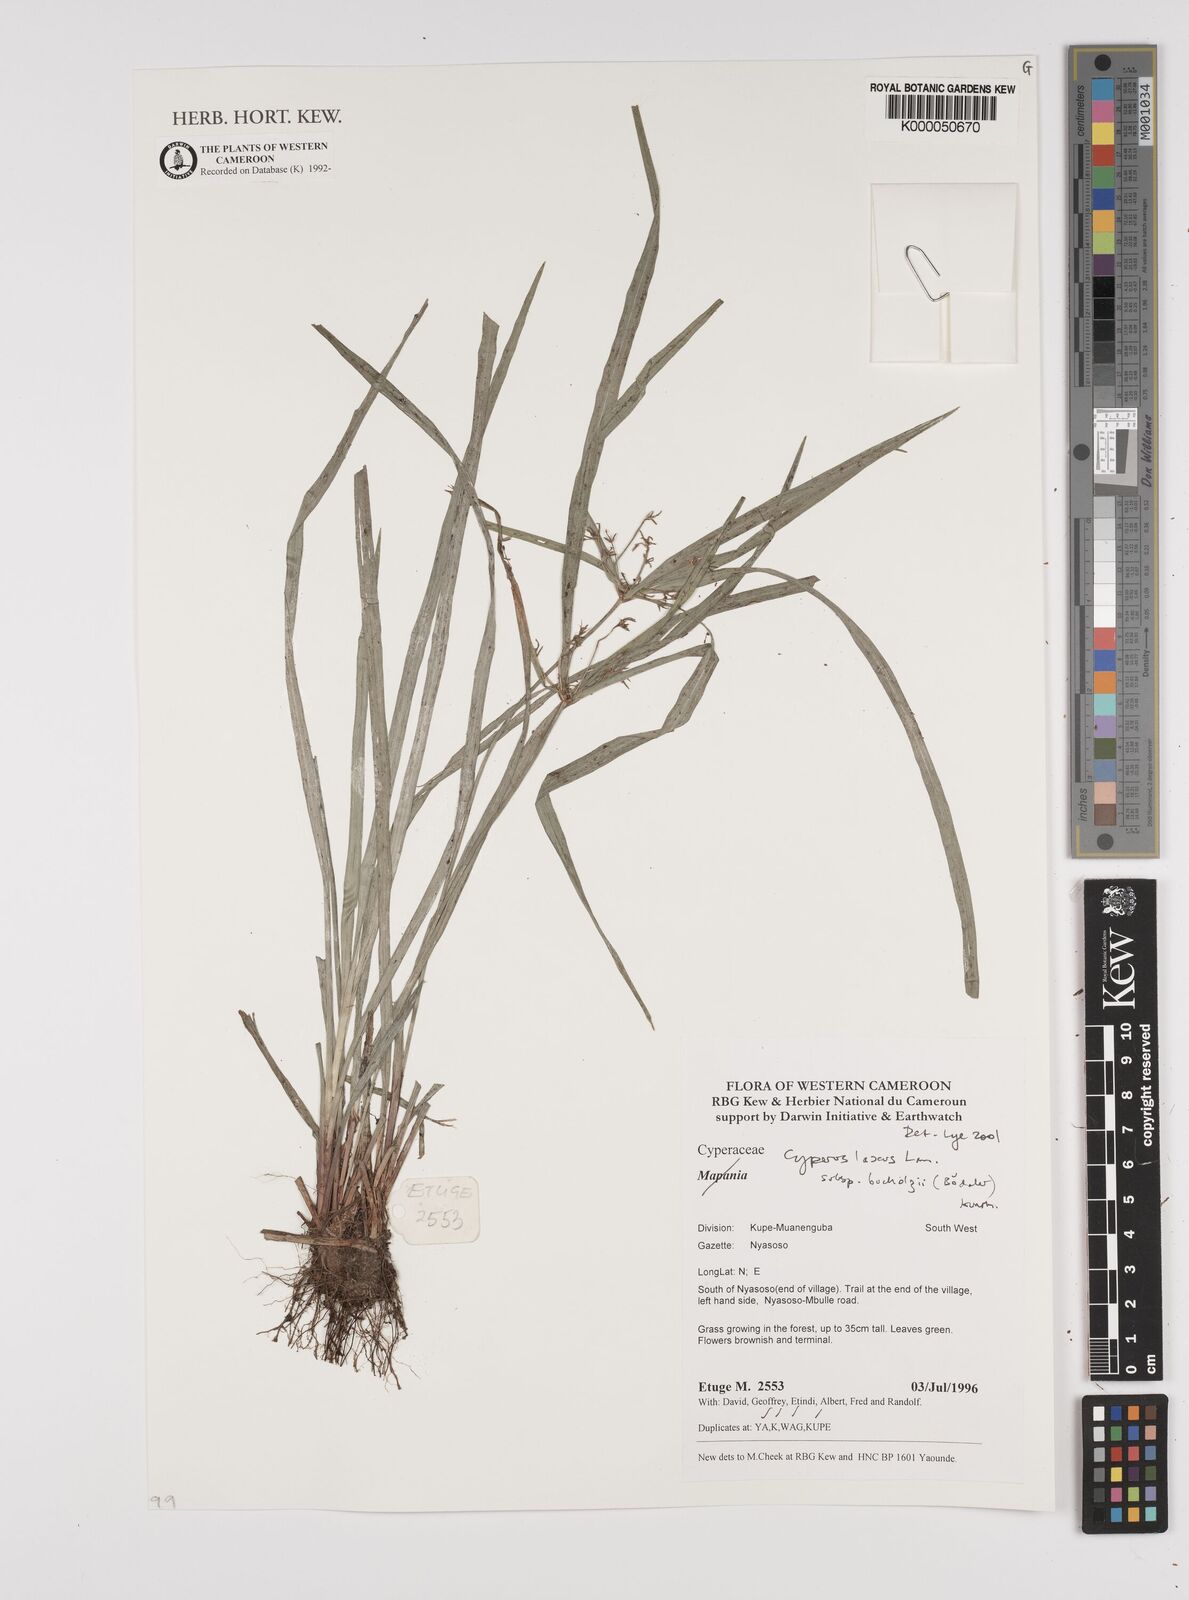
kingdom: Plantae
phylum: Tracheophyta
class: Liliopsida
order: Poales
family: Cyperaceae
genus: Cyperus
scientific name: Cyperus buchholzii
